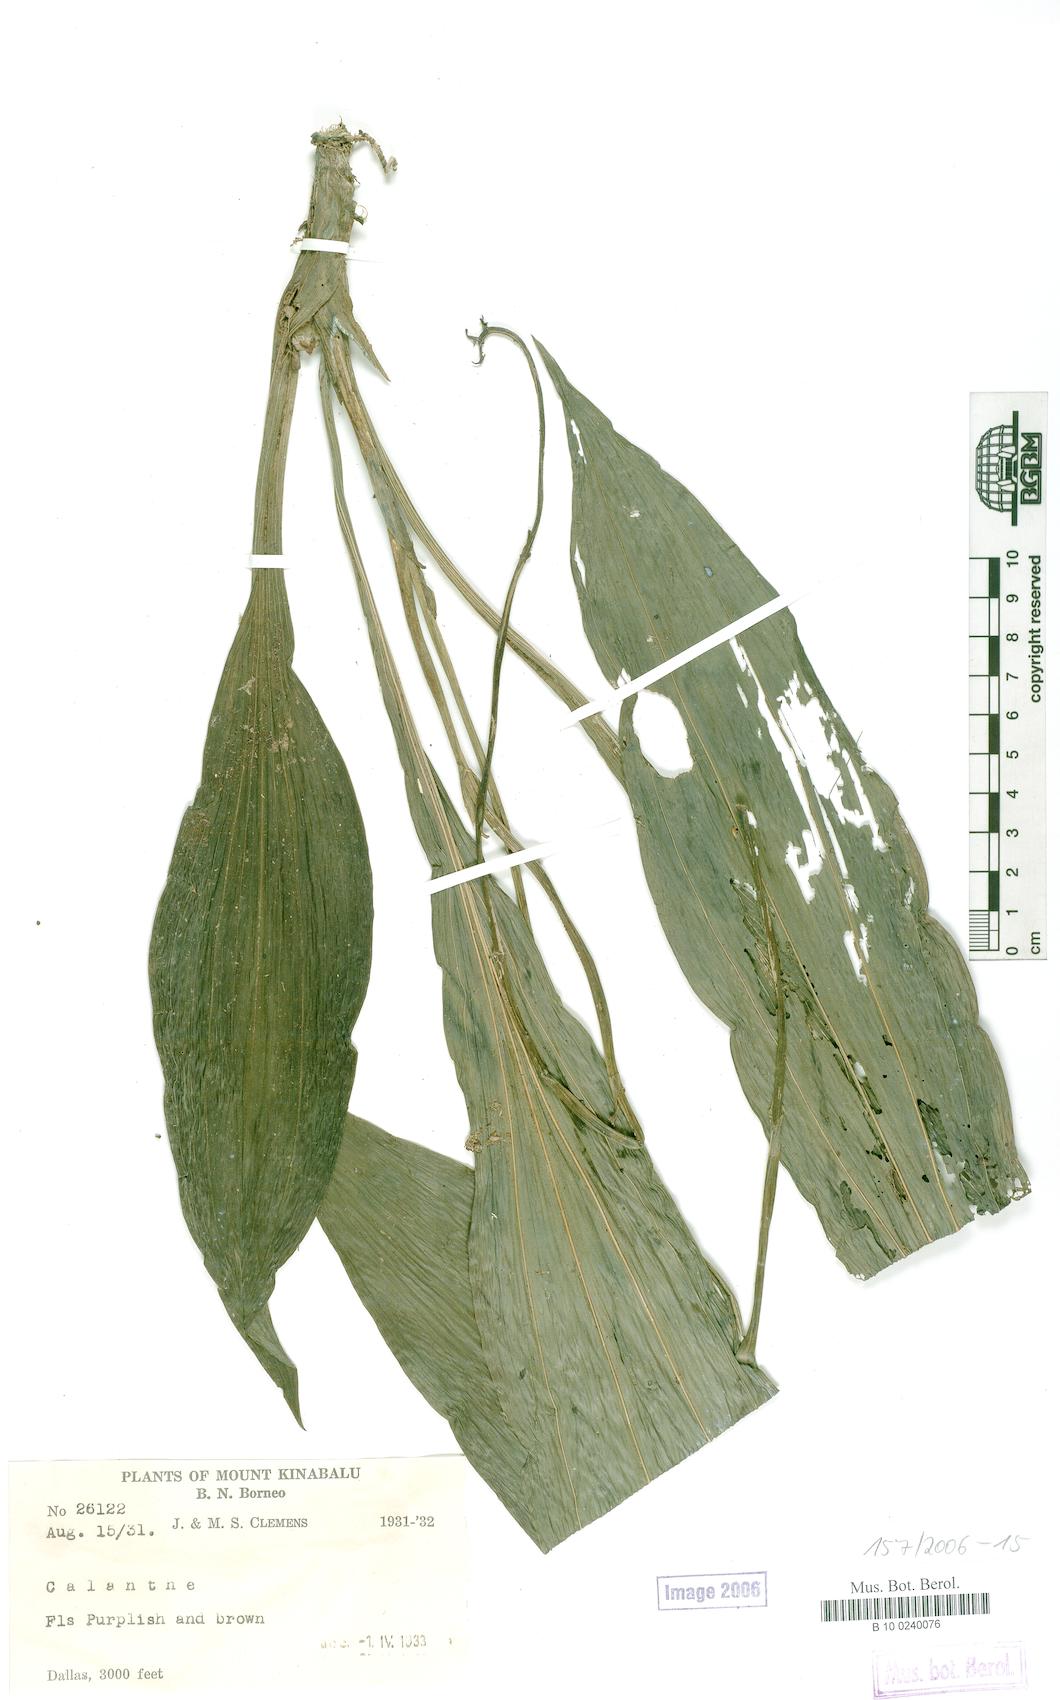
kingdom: Plantae
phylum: Tracheophyta
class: Liliopsida
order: Asparagales
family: Orchidaceae
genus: Calanthe
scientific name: Calanthe
